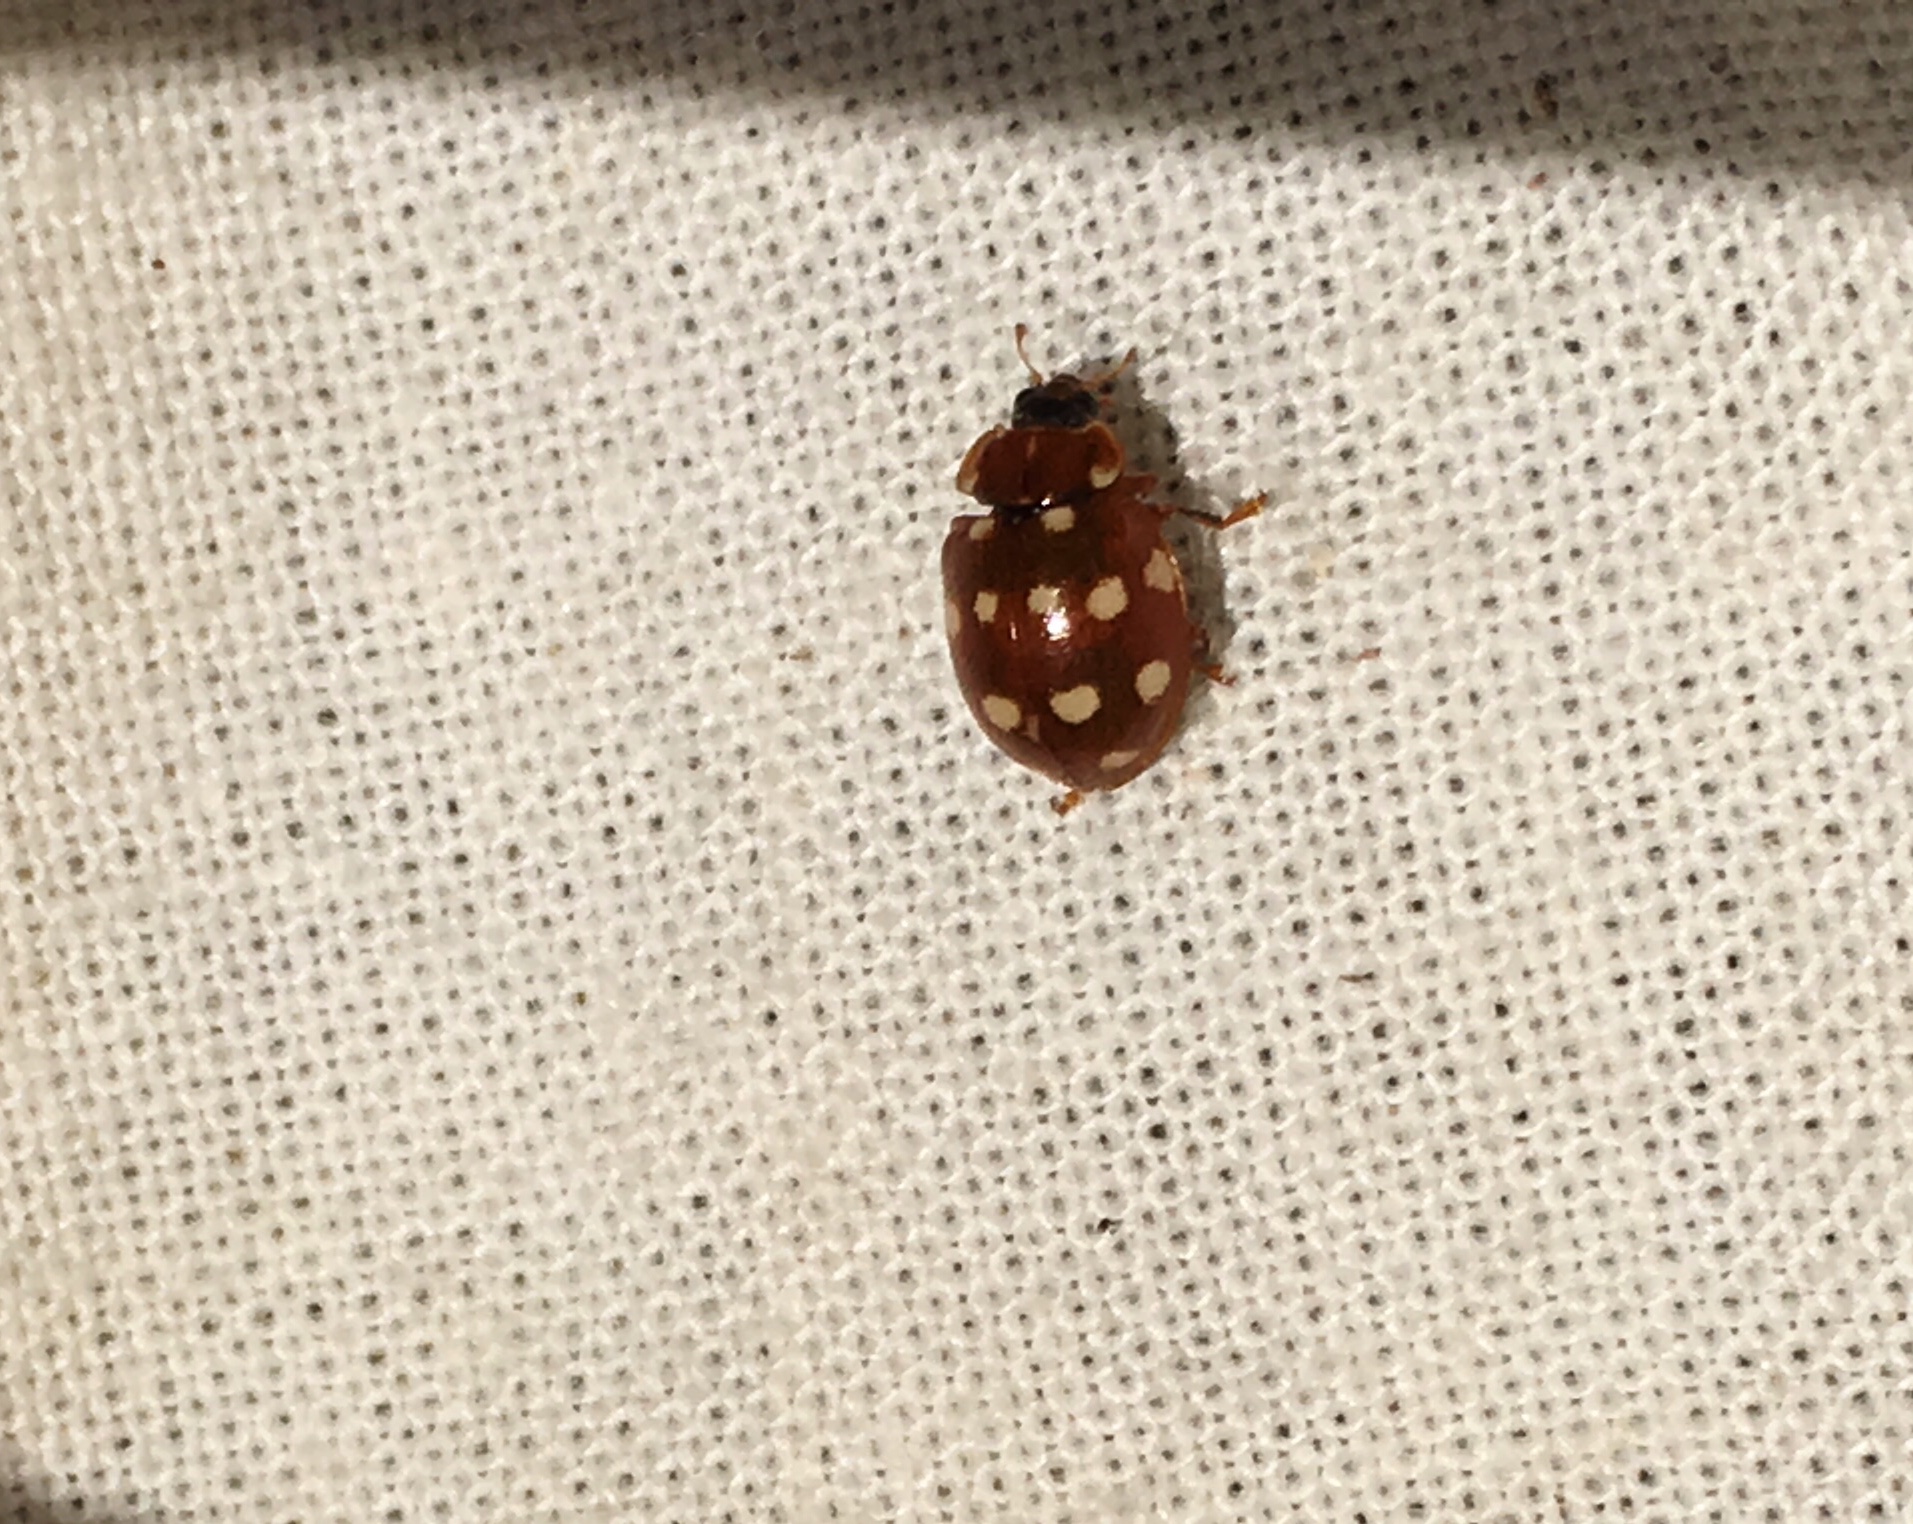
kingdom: Animalia
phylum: Arthropoda
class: Insecta
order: Coleoptera
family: Coccinellidae
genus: Calvia
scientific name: Calvia quatuordecimguttata
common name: Cream-spot ladybird
